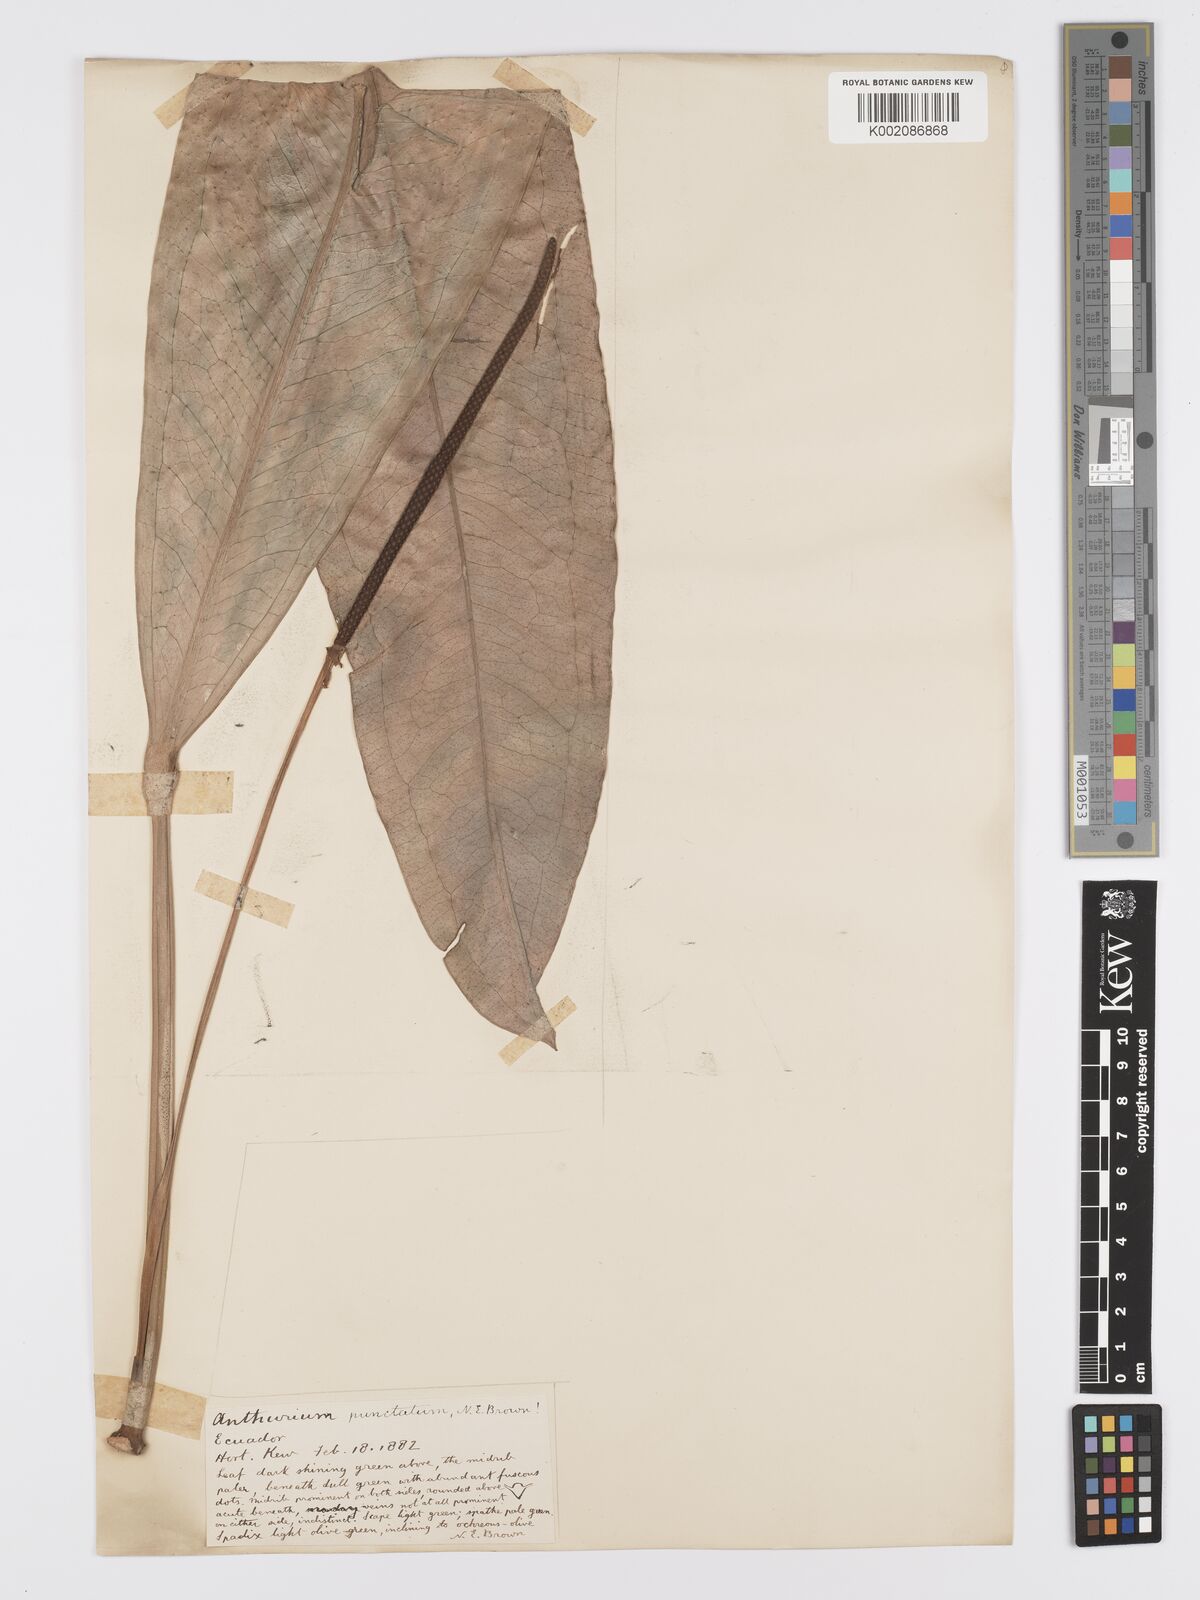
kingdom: Plantae
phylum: Tracheophyta
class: Liliopsida
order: Alismatales
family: Araceae
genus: Anthurium
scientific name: Anthurium punctatum
